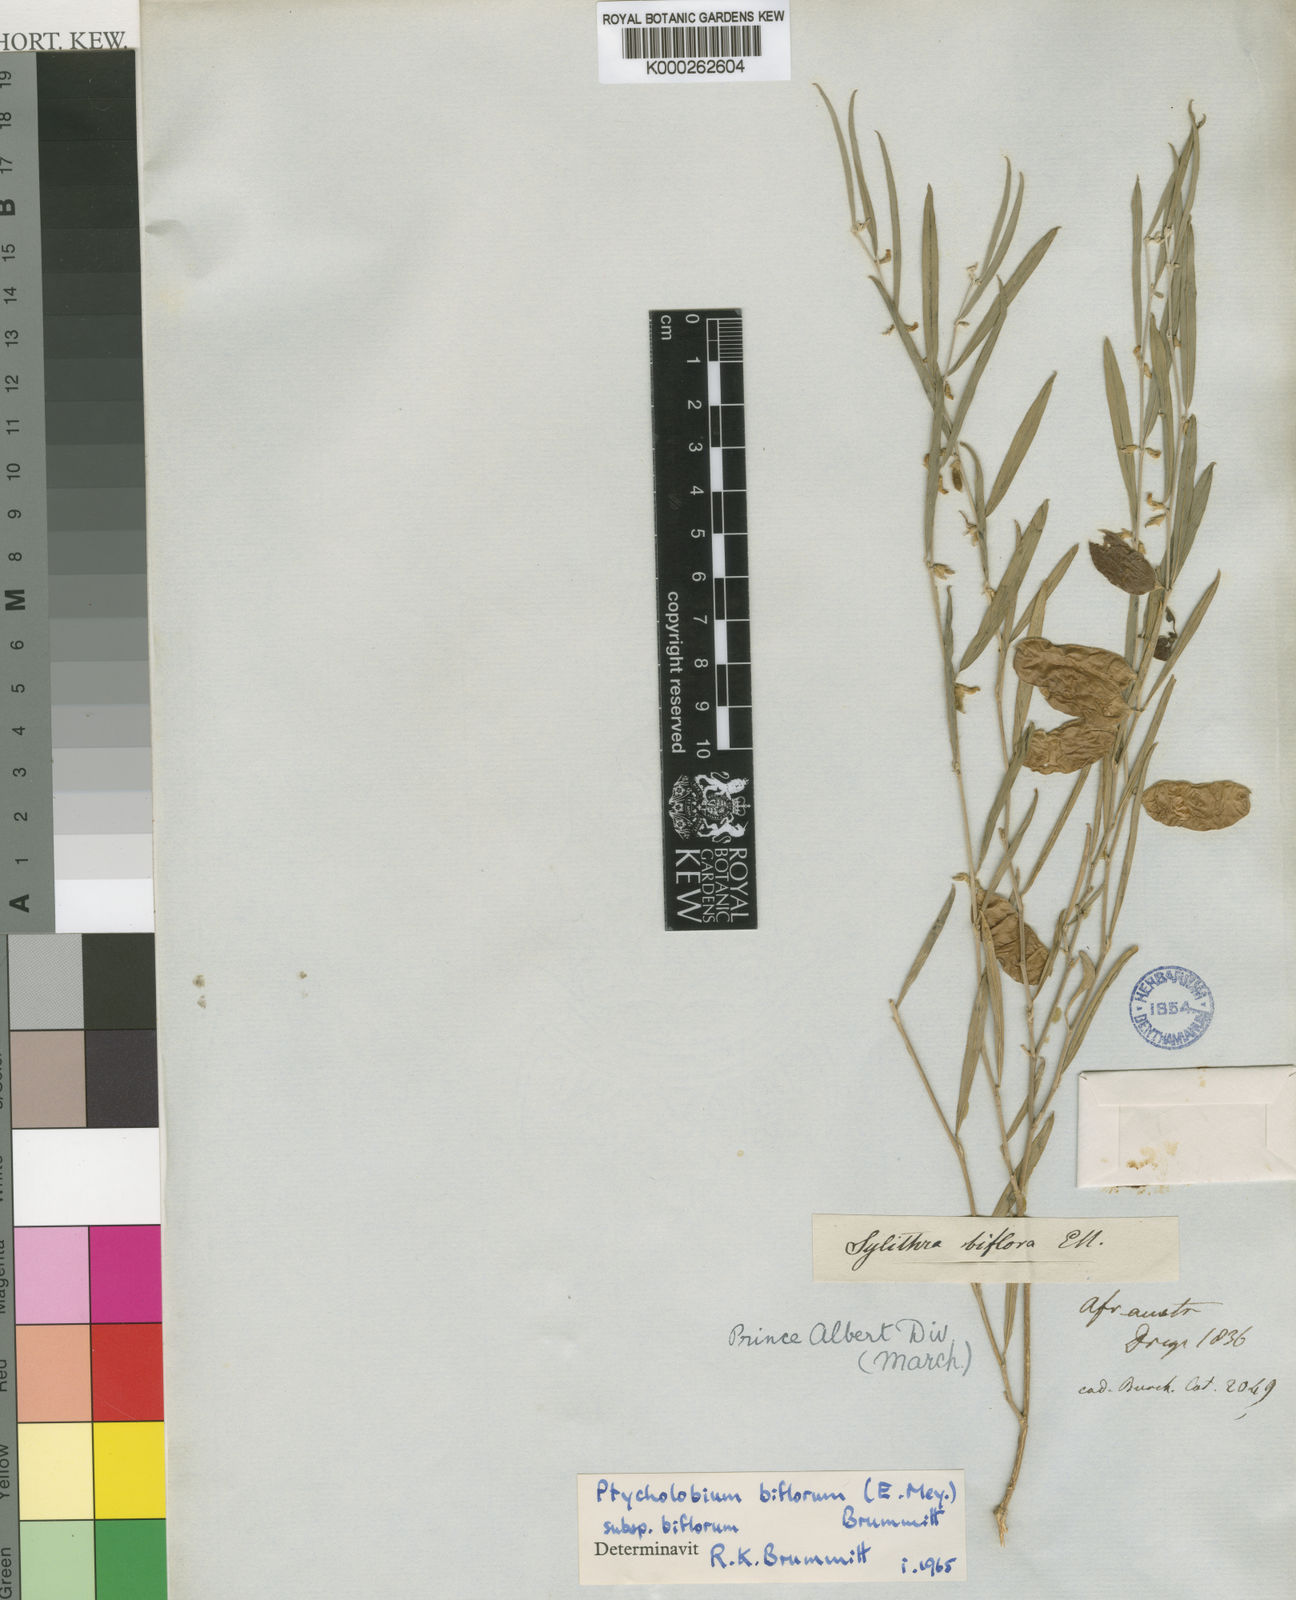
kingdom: Plantae
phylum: Tracheophyta
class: Magnoliopsida
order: Fabales
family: Fabaceae
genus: Ptycholobium
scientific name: Ptycholobium biflorum
